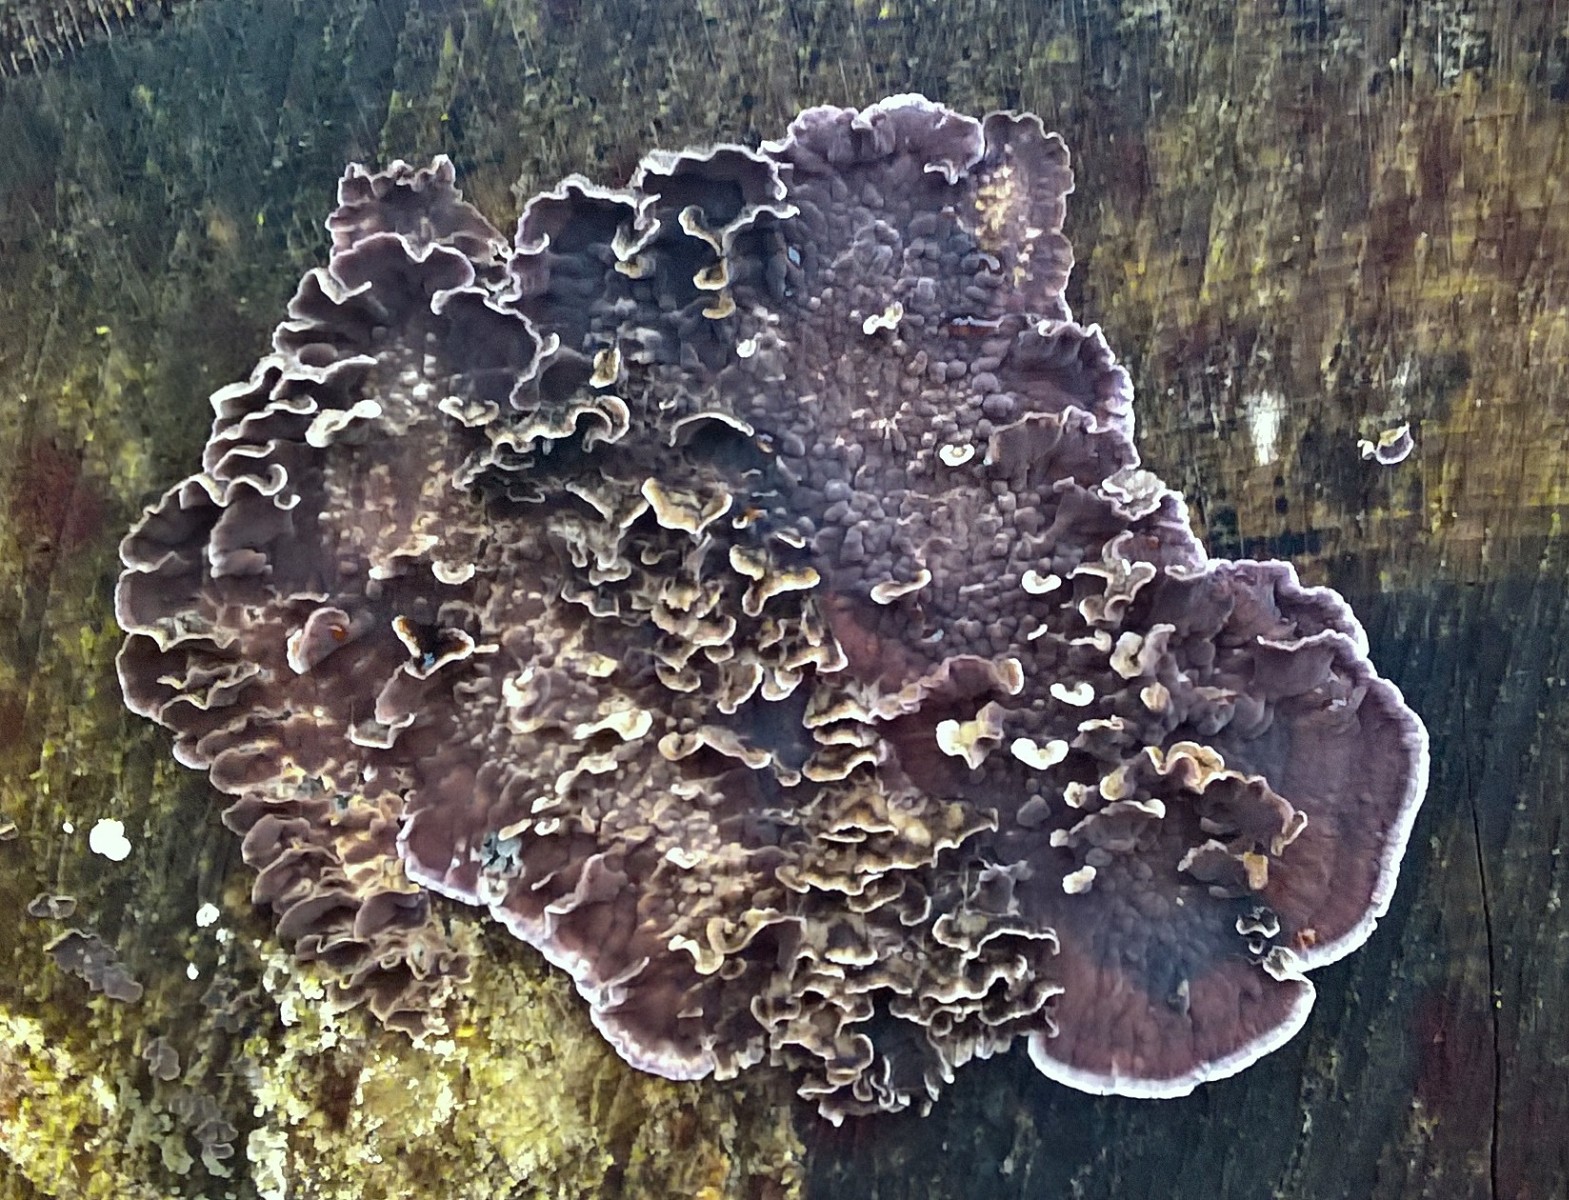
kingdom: Fungi
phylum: Basidiomycota
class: Agaricomycetes
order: Agaricales
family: Cyphellaceae
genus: Chondrostereum
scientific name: Chondrostereum purpureum
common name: purpurlædersvamp
